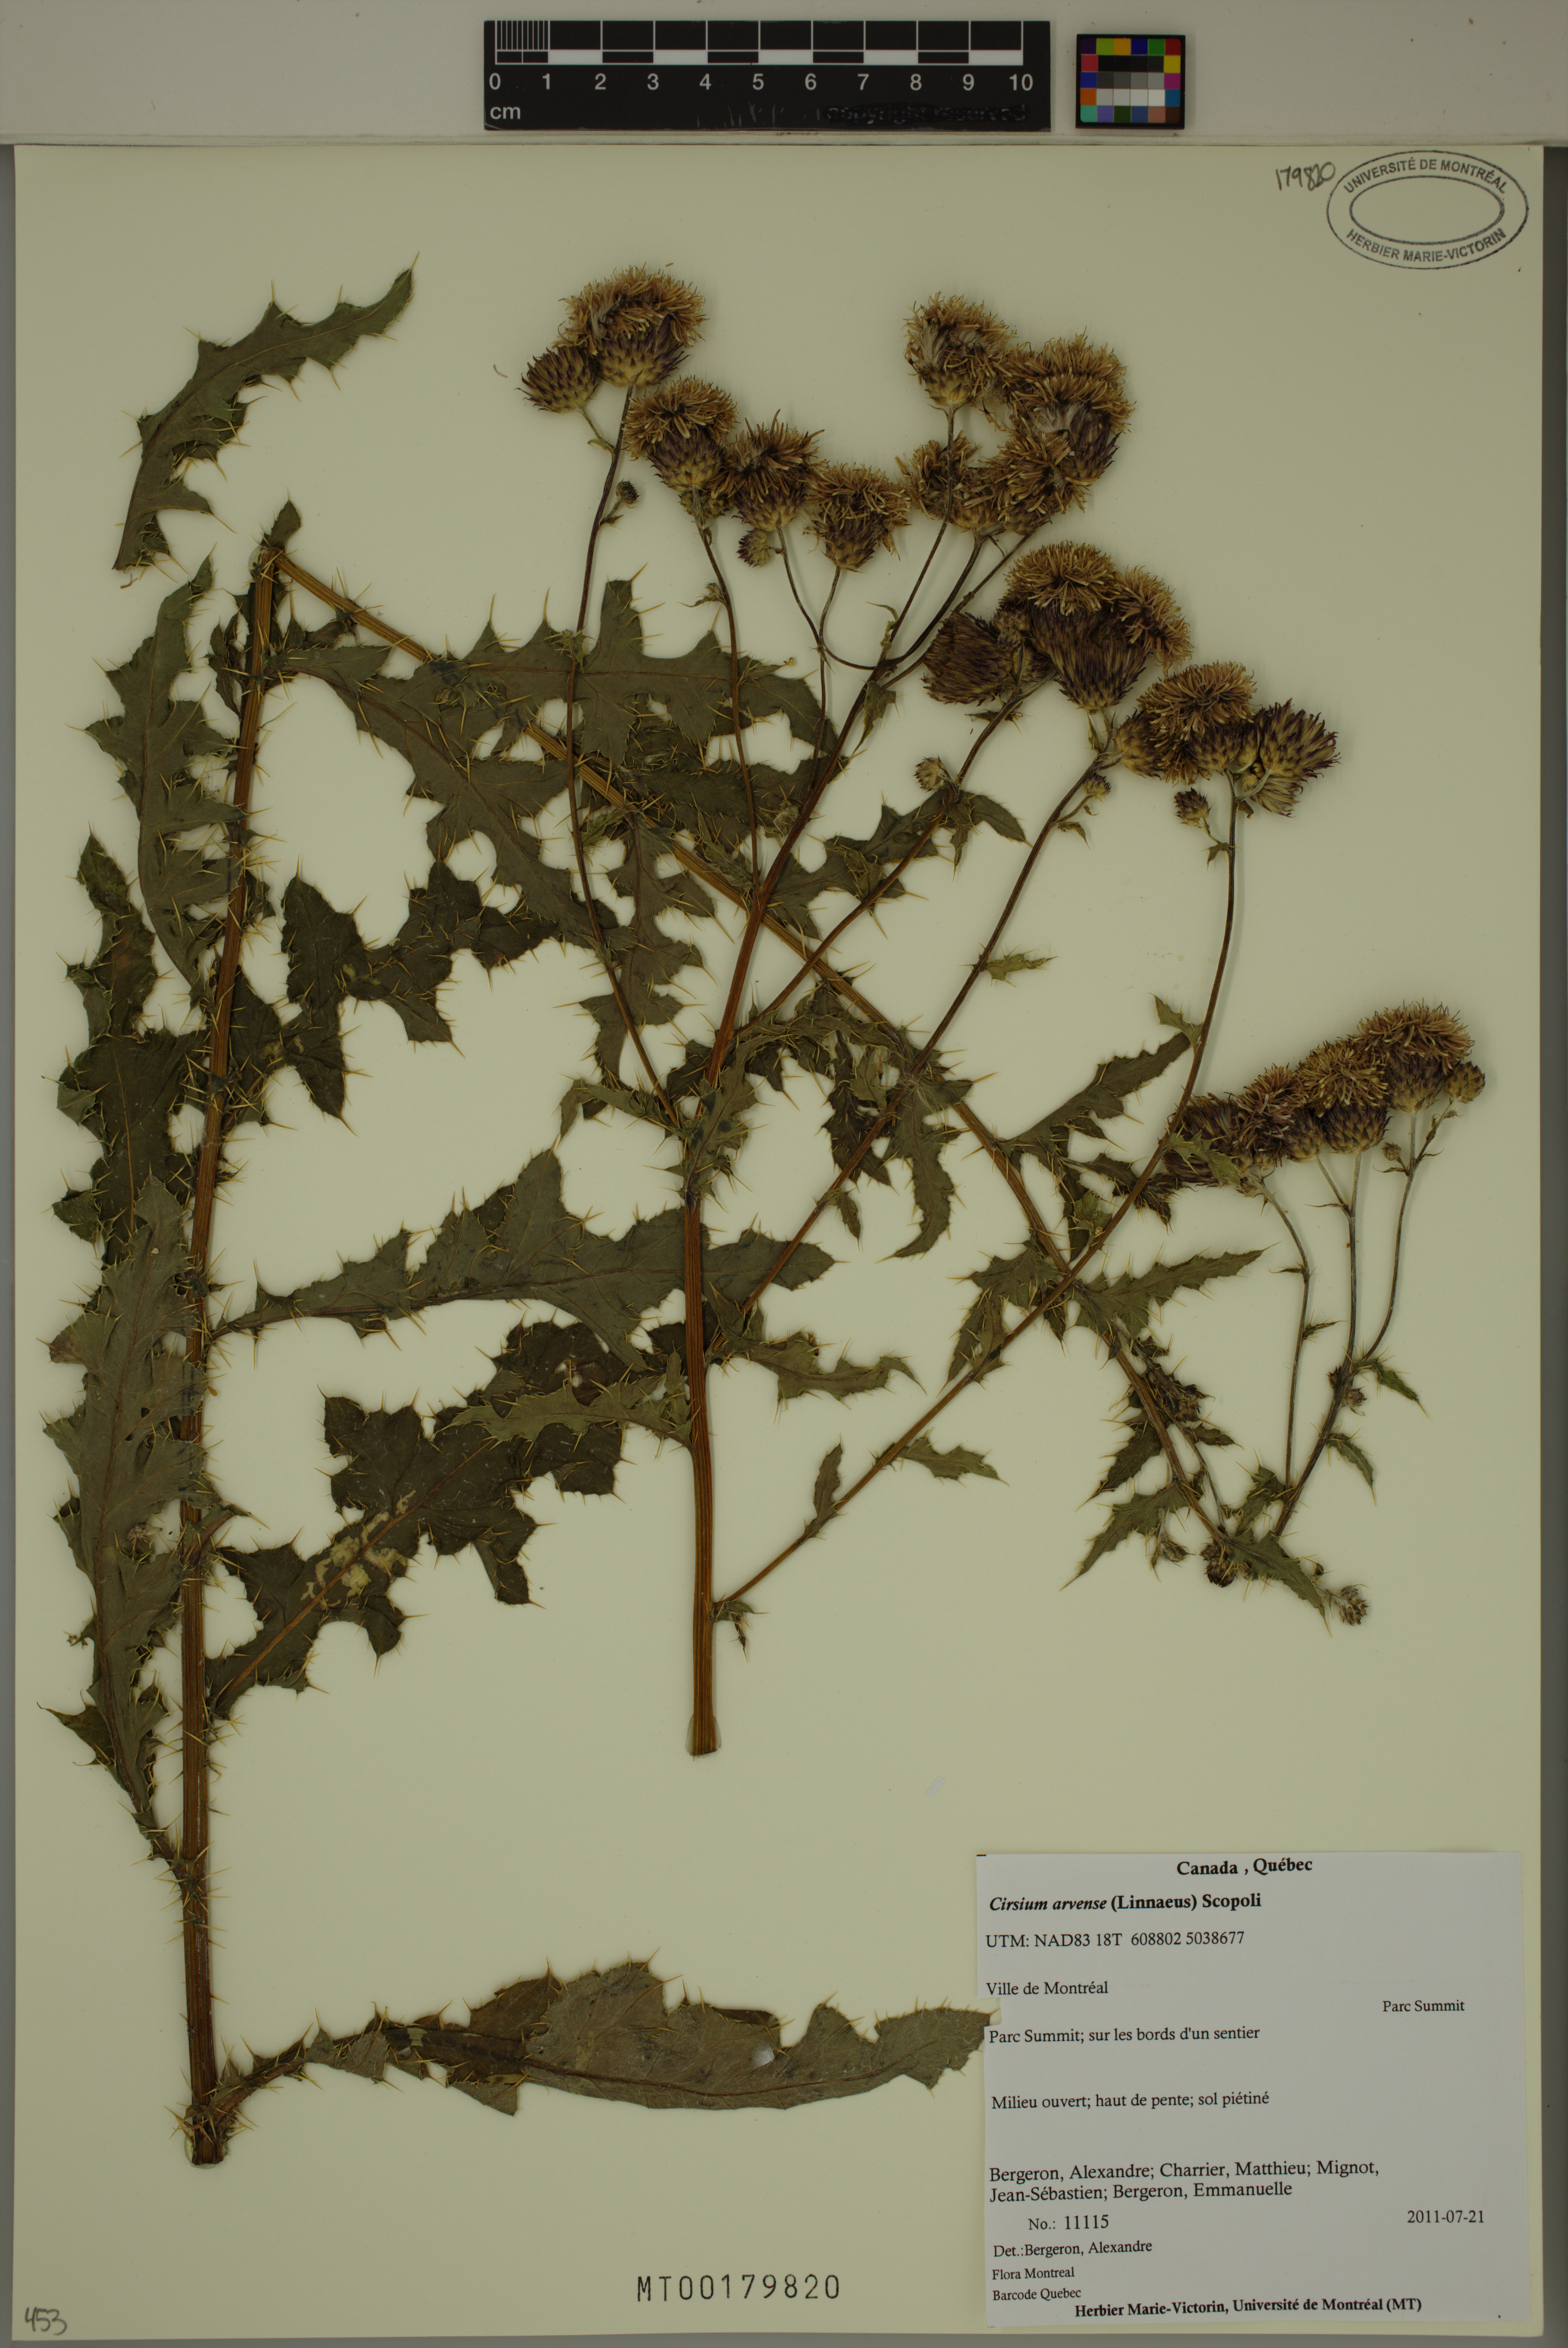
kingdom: Plantae
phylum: Tracheophyta
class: Magnoliopsida
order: Asterales
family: Asteraceae
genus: Cirsium
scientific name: Cirsium arvense
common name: Creeping thistle
